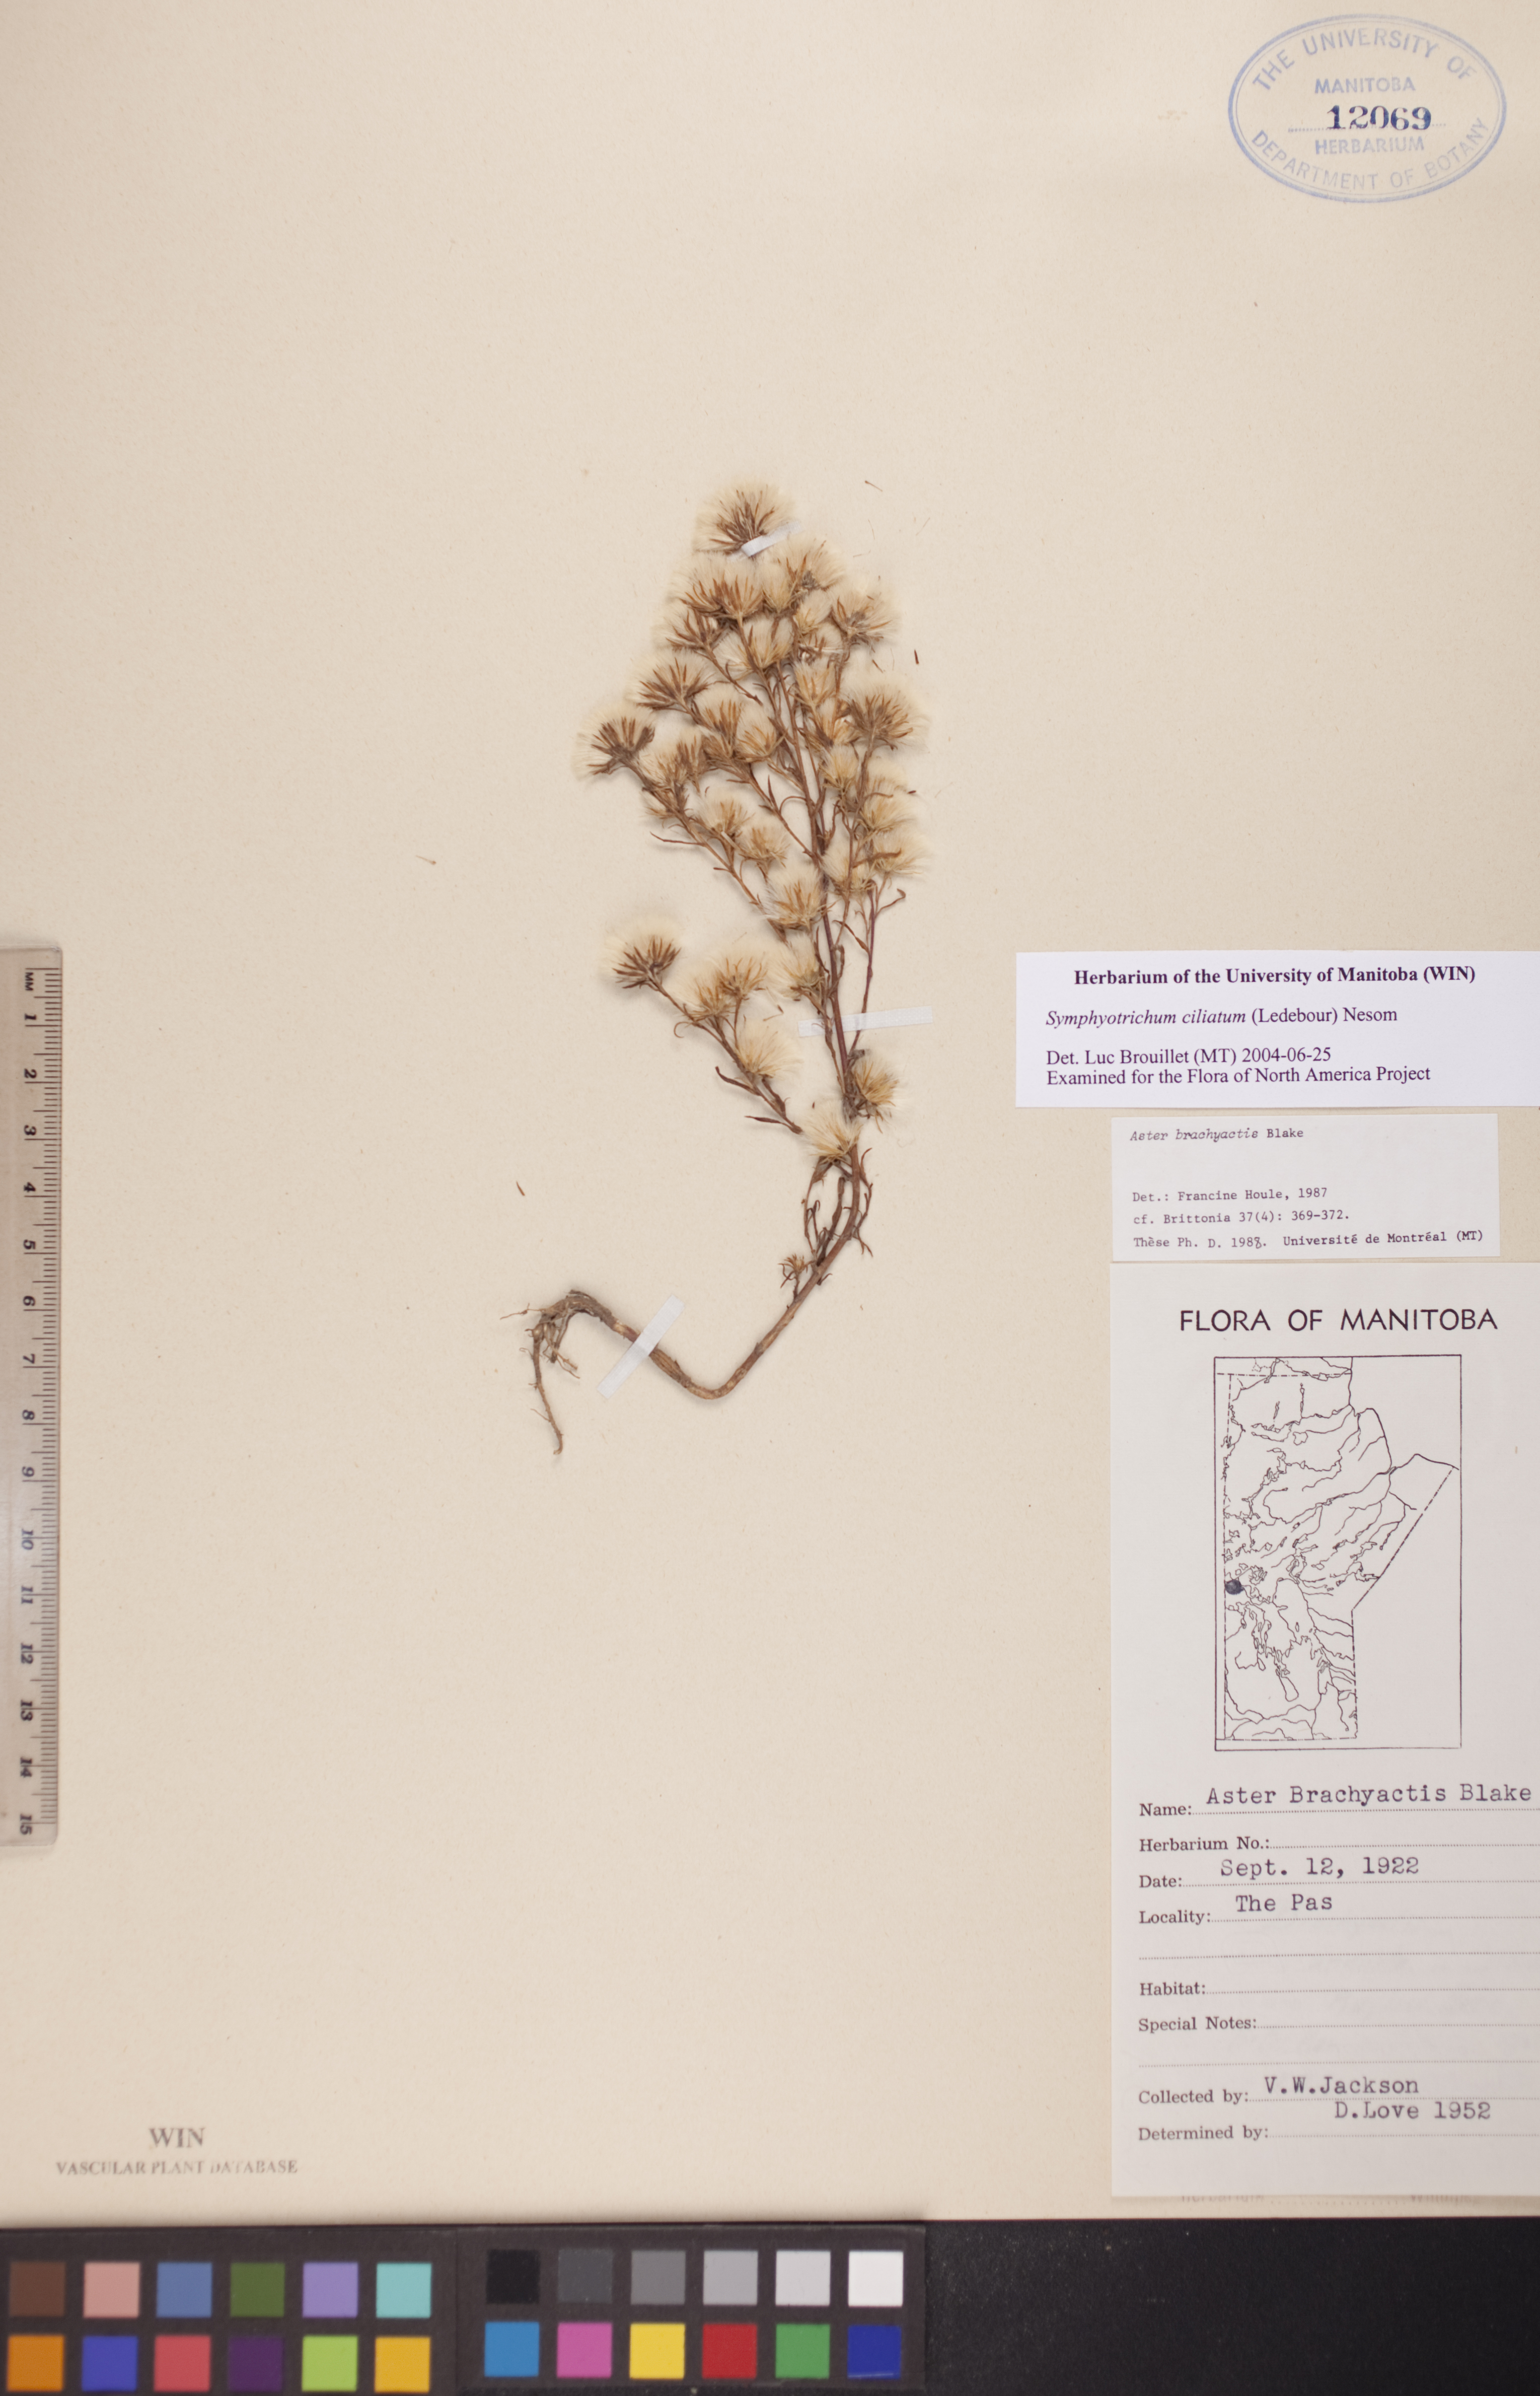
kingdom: Plantae
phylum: Tracheophyta
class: Magnoliopsida
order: Asterales
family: Asteraceae
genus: Symphyotrichum
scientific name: Symphyotrichum ciliatum
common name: Rayless annual aster
